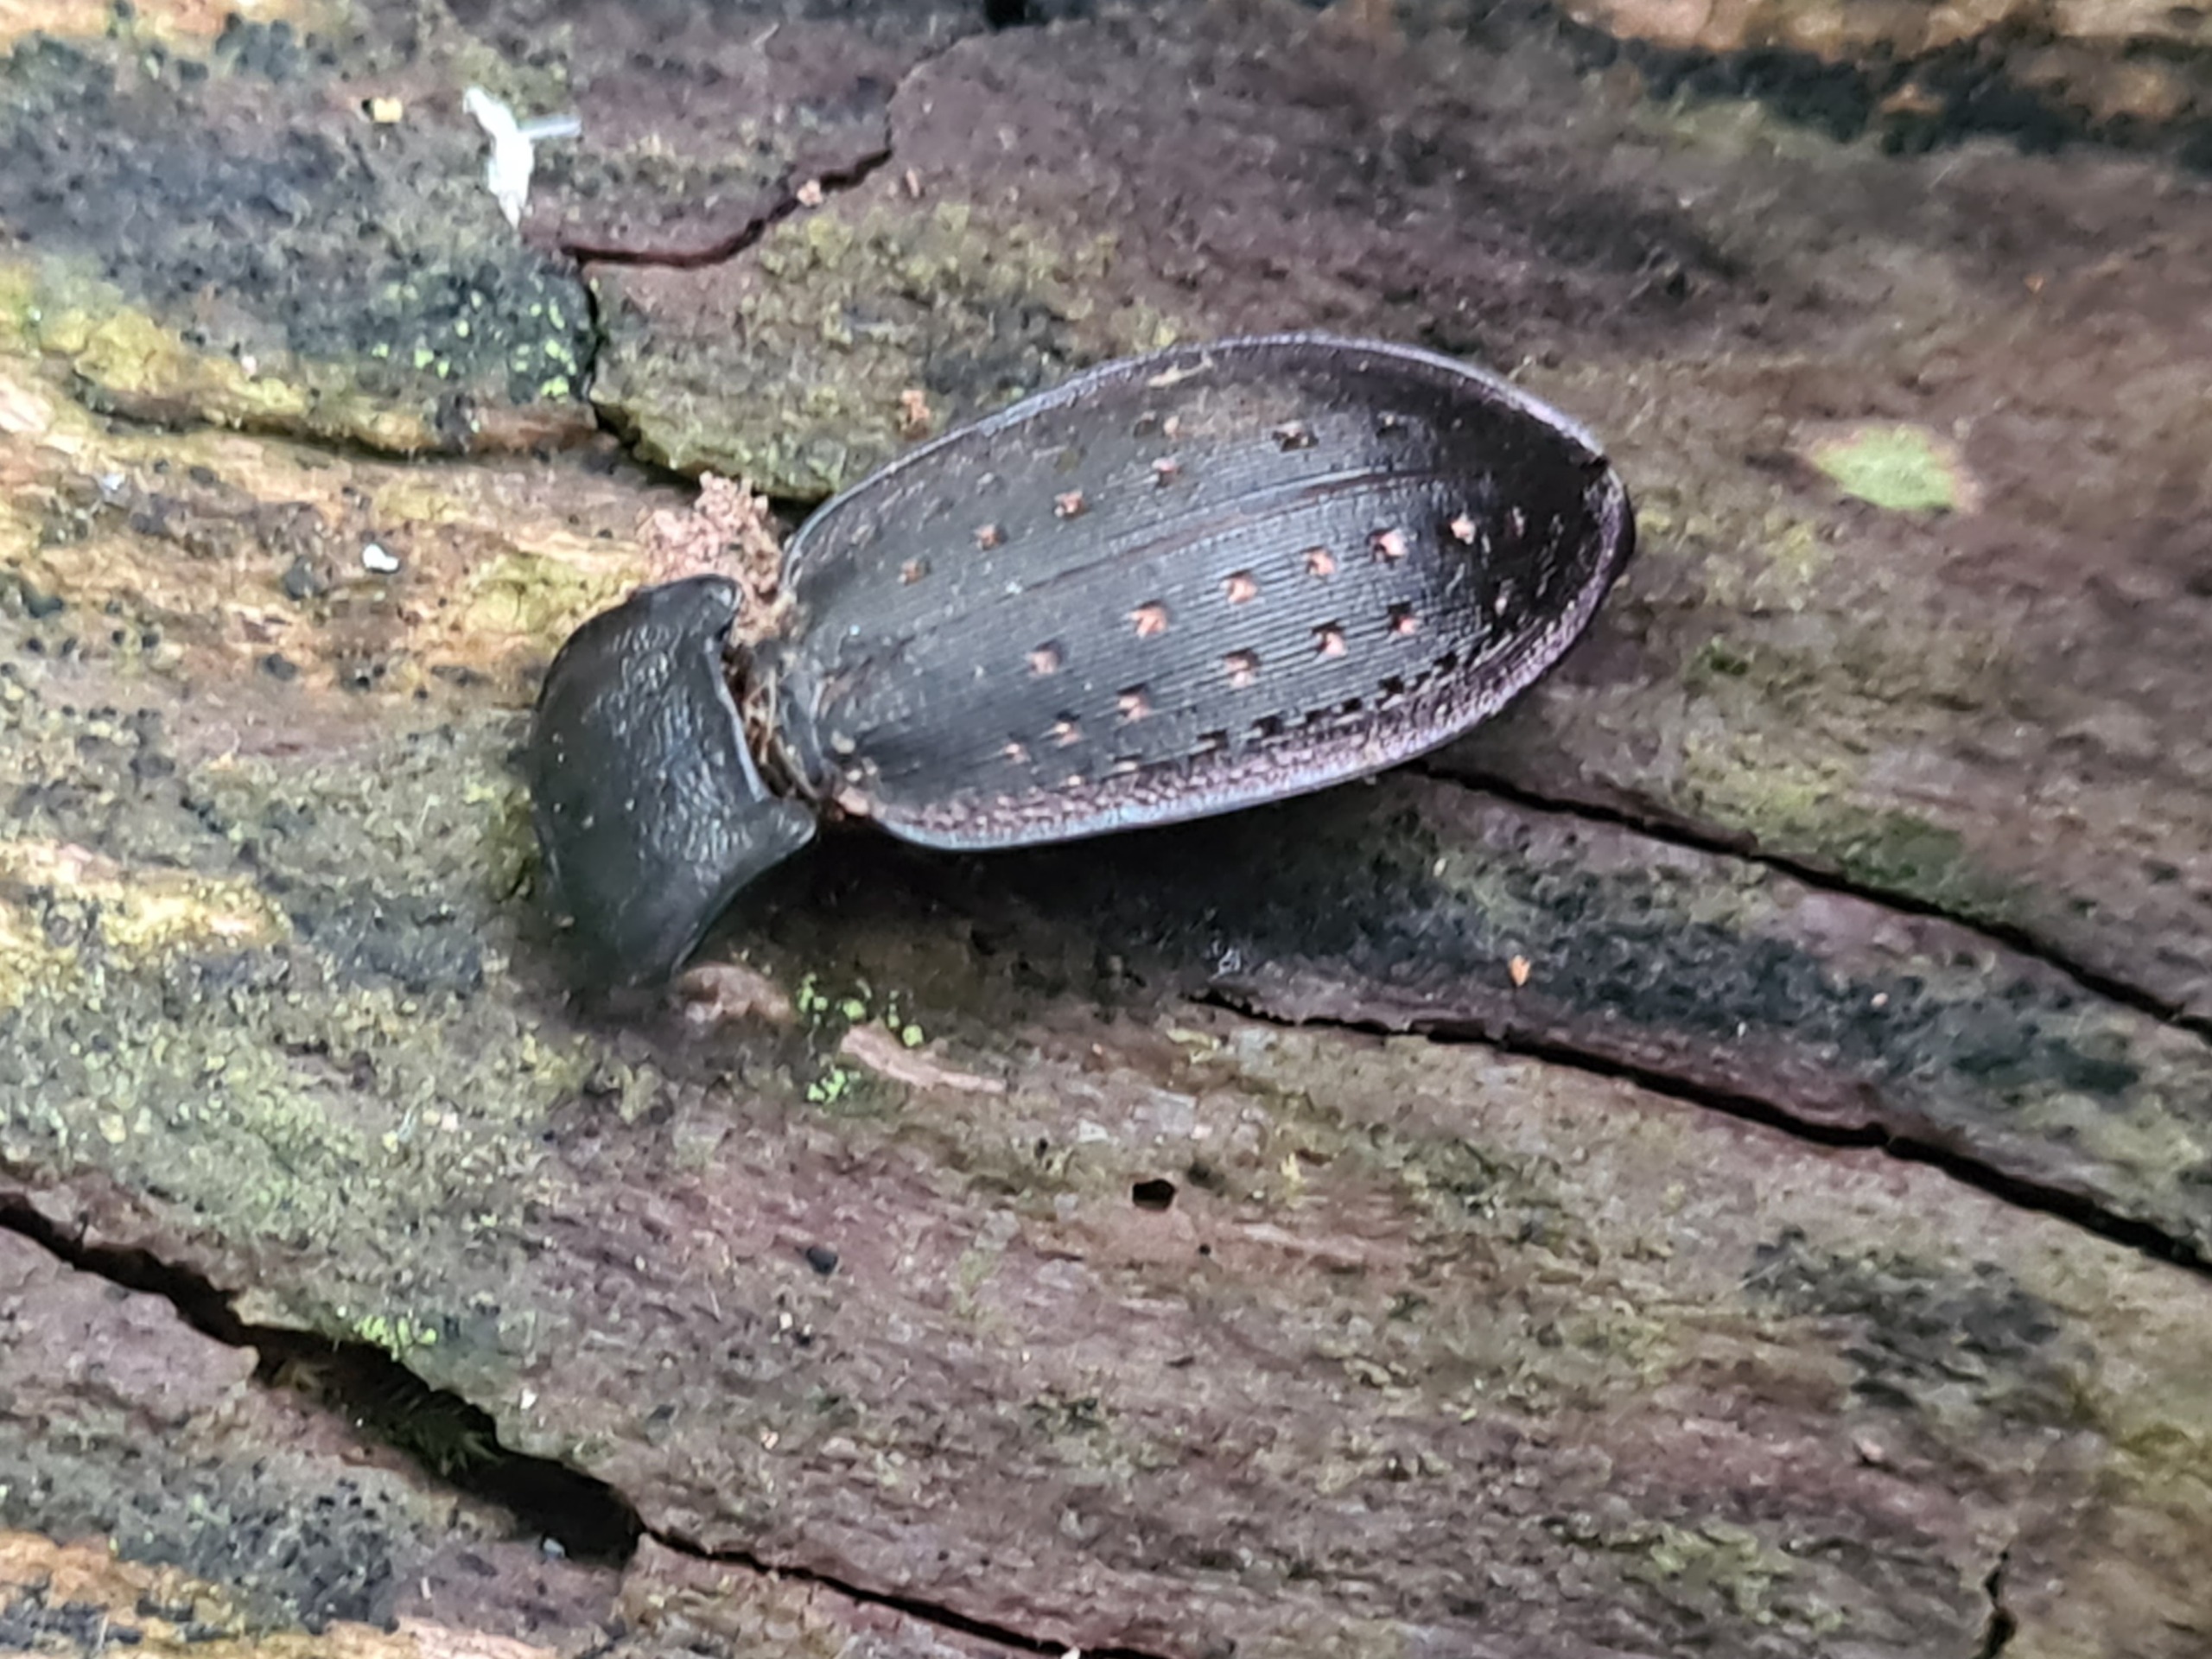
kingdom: Animalia
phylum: Arthropoda
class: Insecta
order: Coleoptera
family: Carabidae
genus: Carabus
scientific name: Carabus hortensis
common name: Guldpletløber
